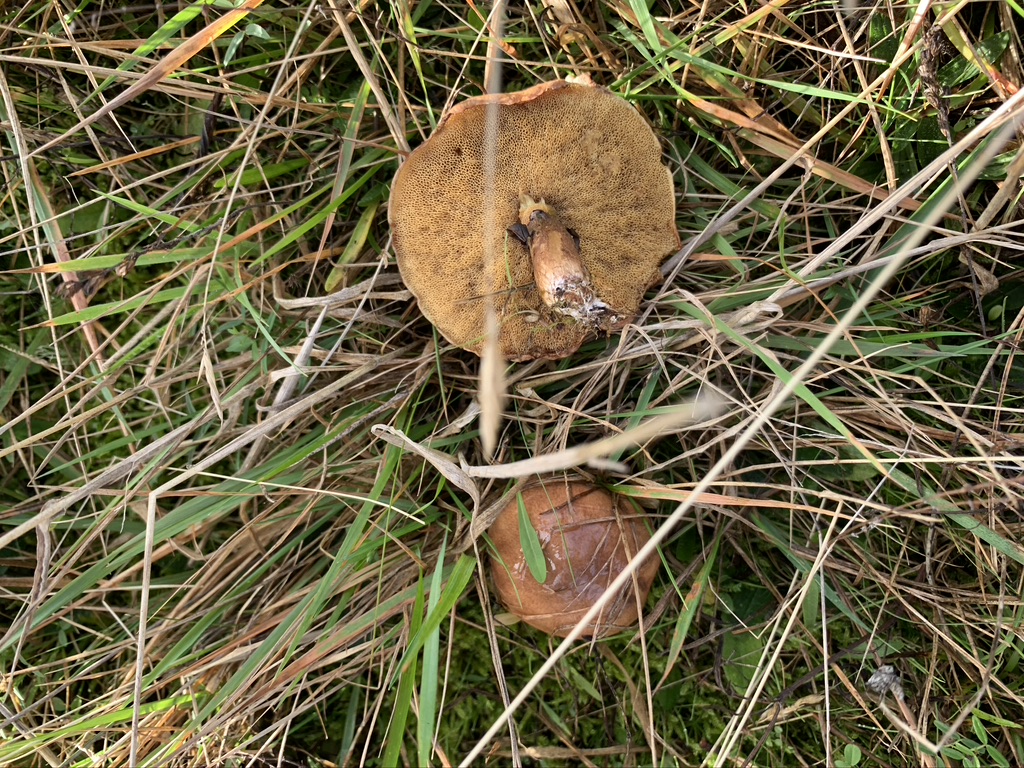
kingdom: Fungi
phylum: Basidiomycota
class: Agaricomycetes
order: Boletales
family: Suillaceae
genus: Suillus
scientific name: Suillus luteus
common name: brungul slimrørhat
